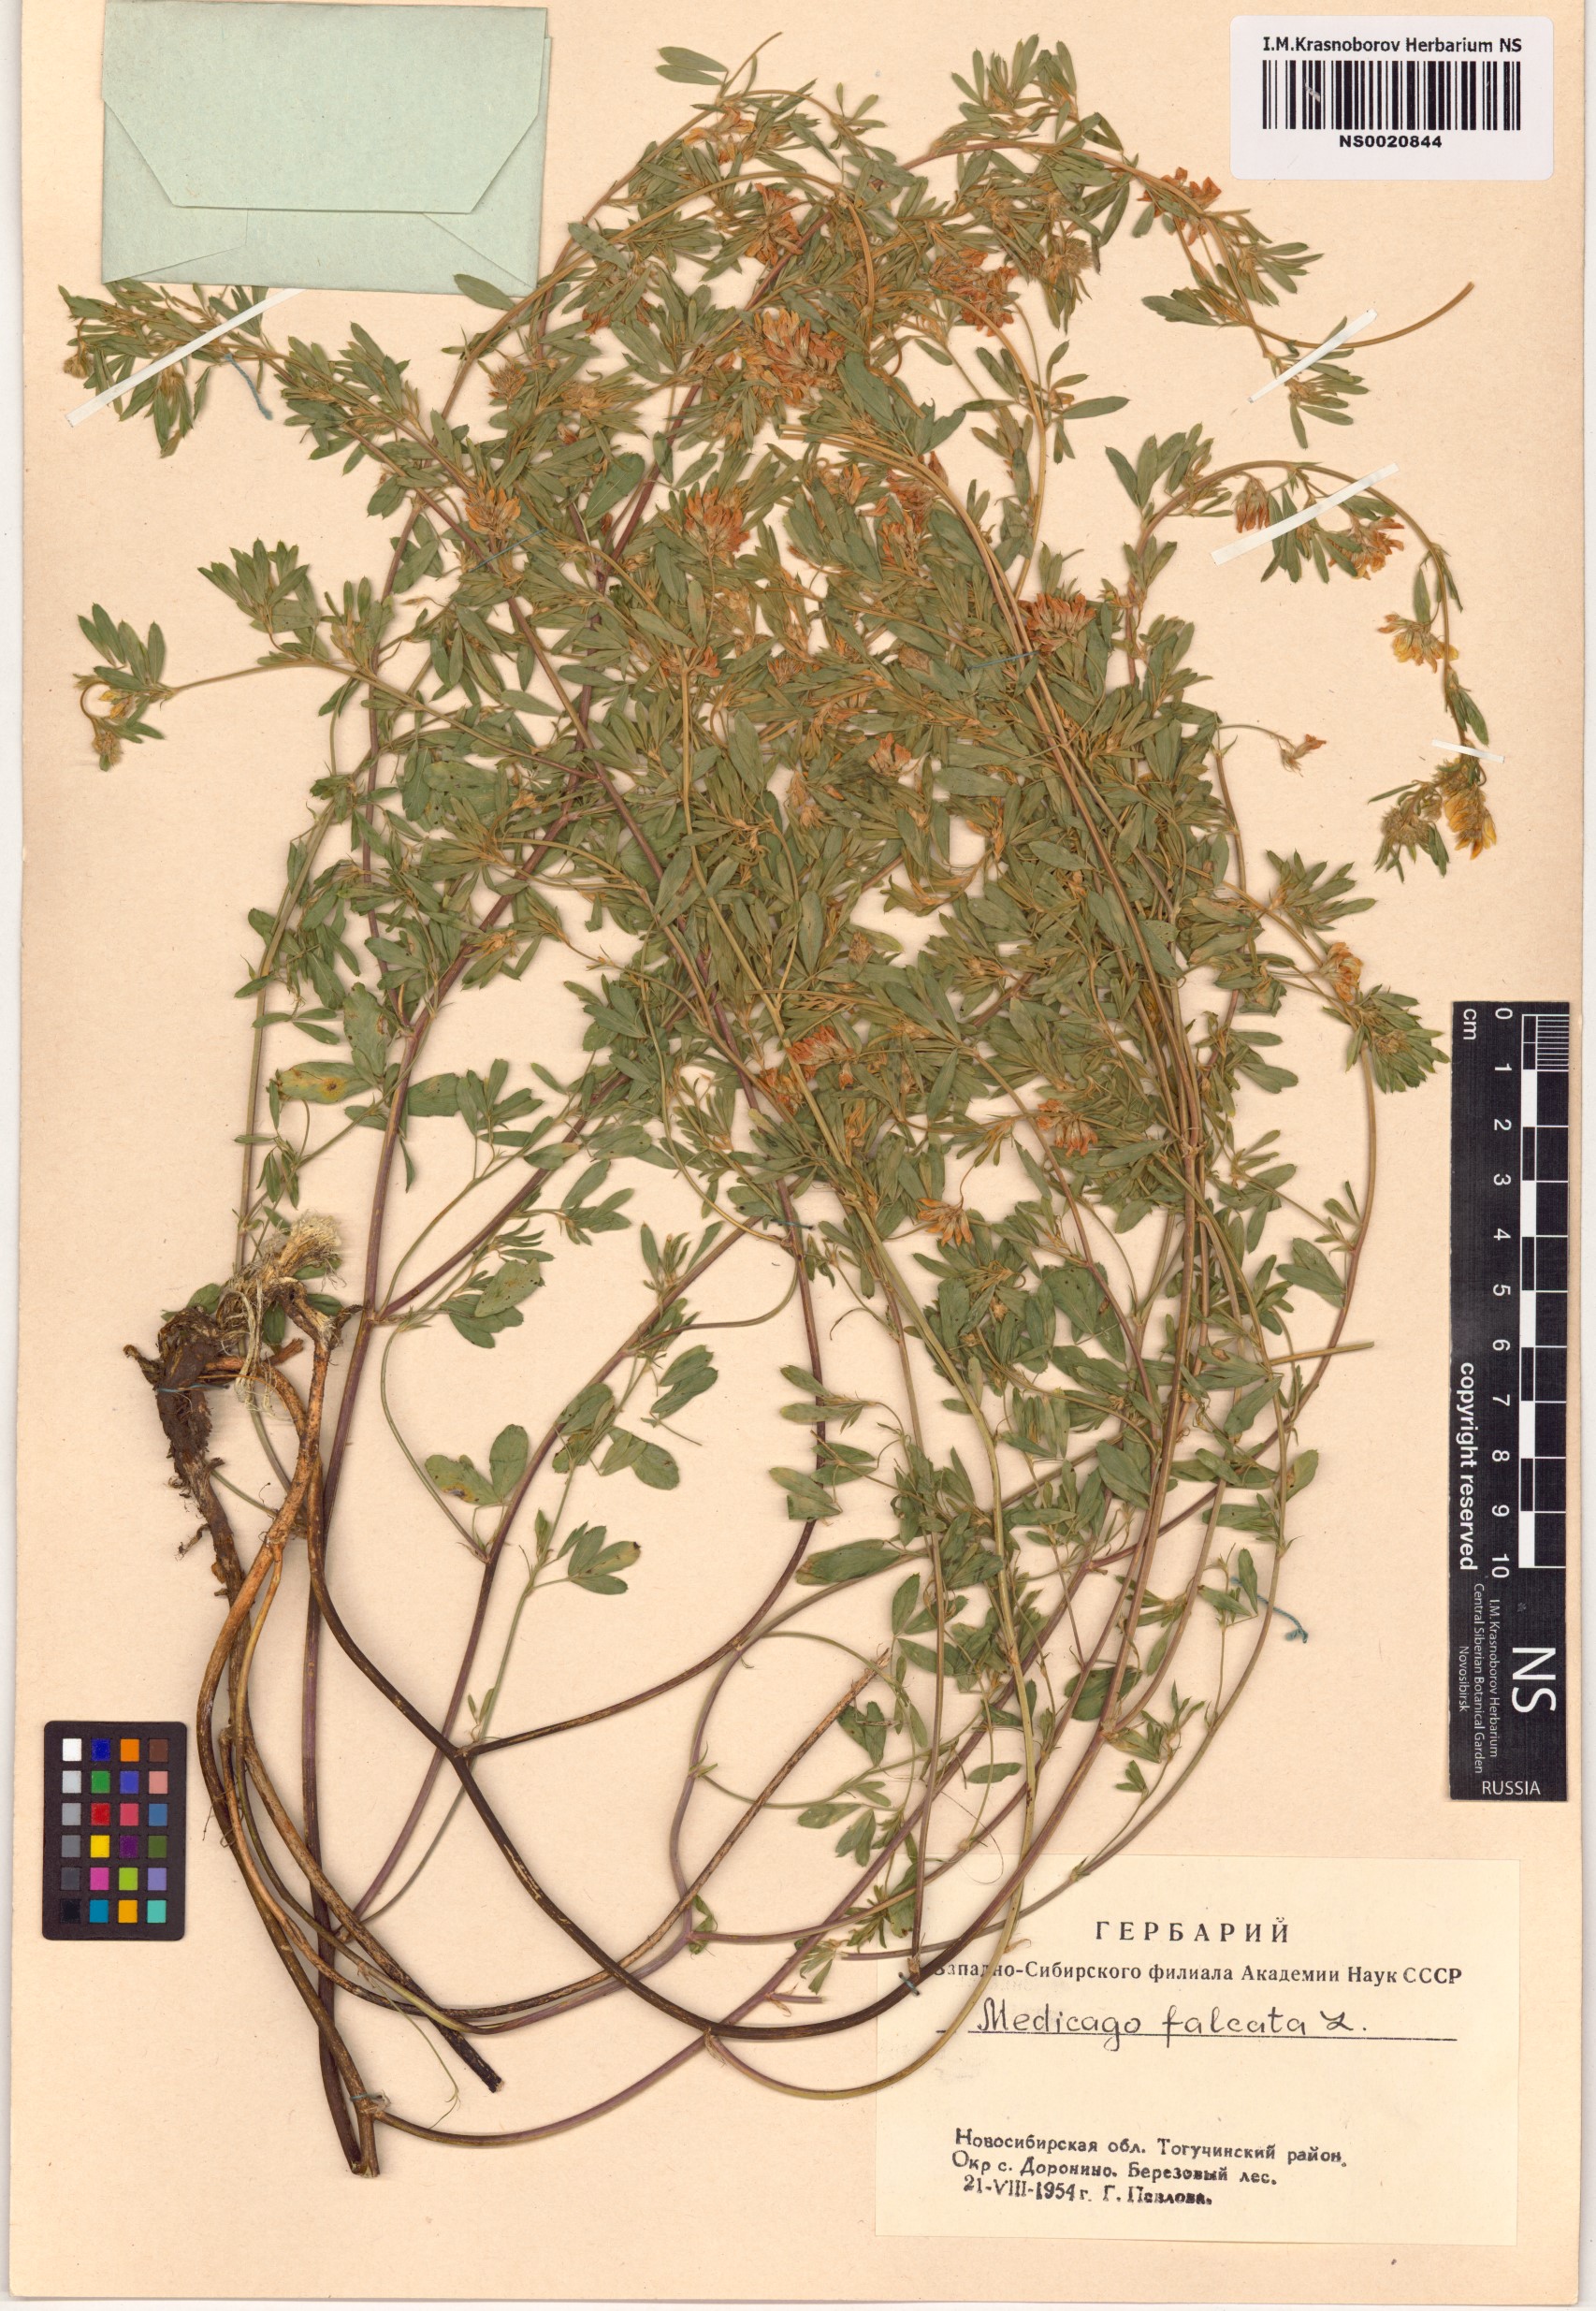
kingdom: Plantae
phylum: Tracheophyta
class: Magnoliopsida
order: Fabales
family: Fabaceae
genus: Medicago
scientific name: Medicago falcata
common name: Sickle medick
